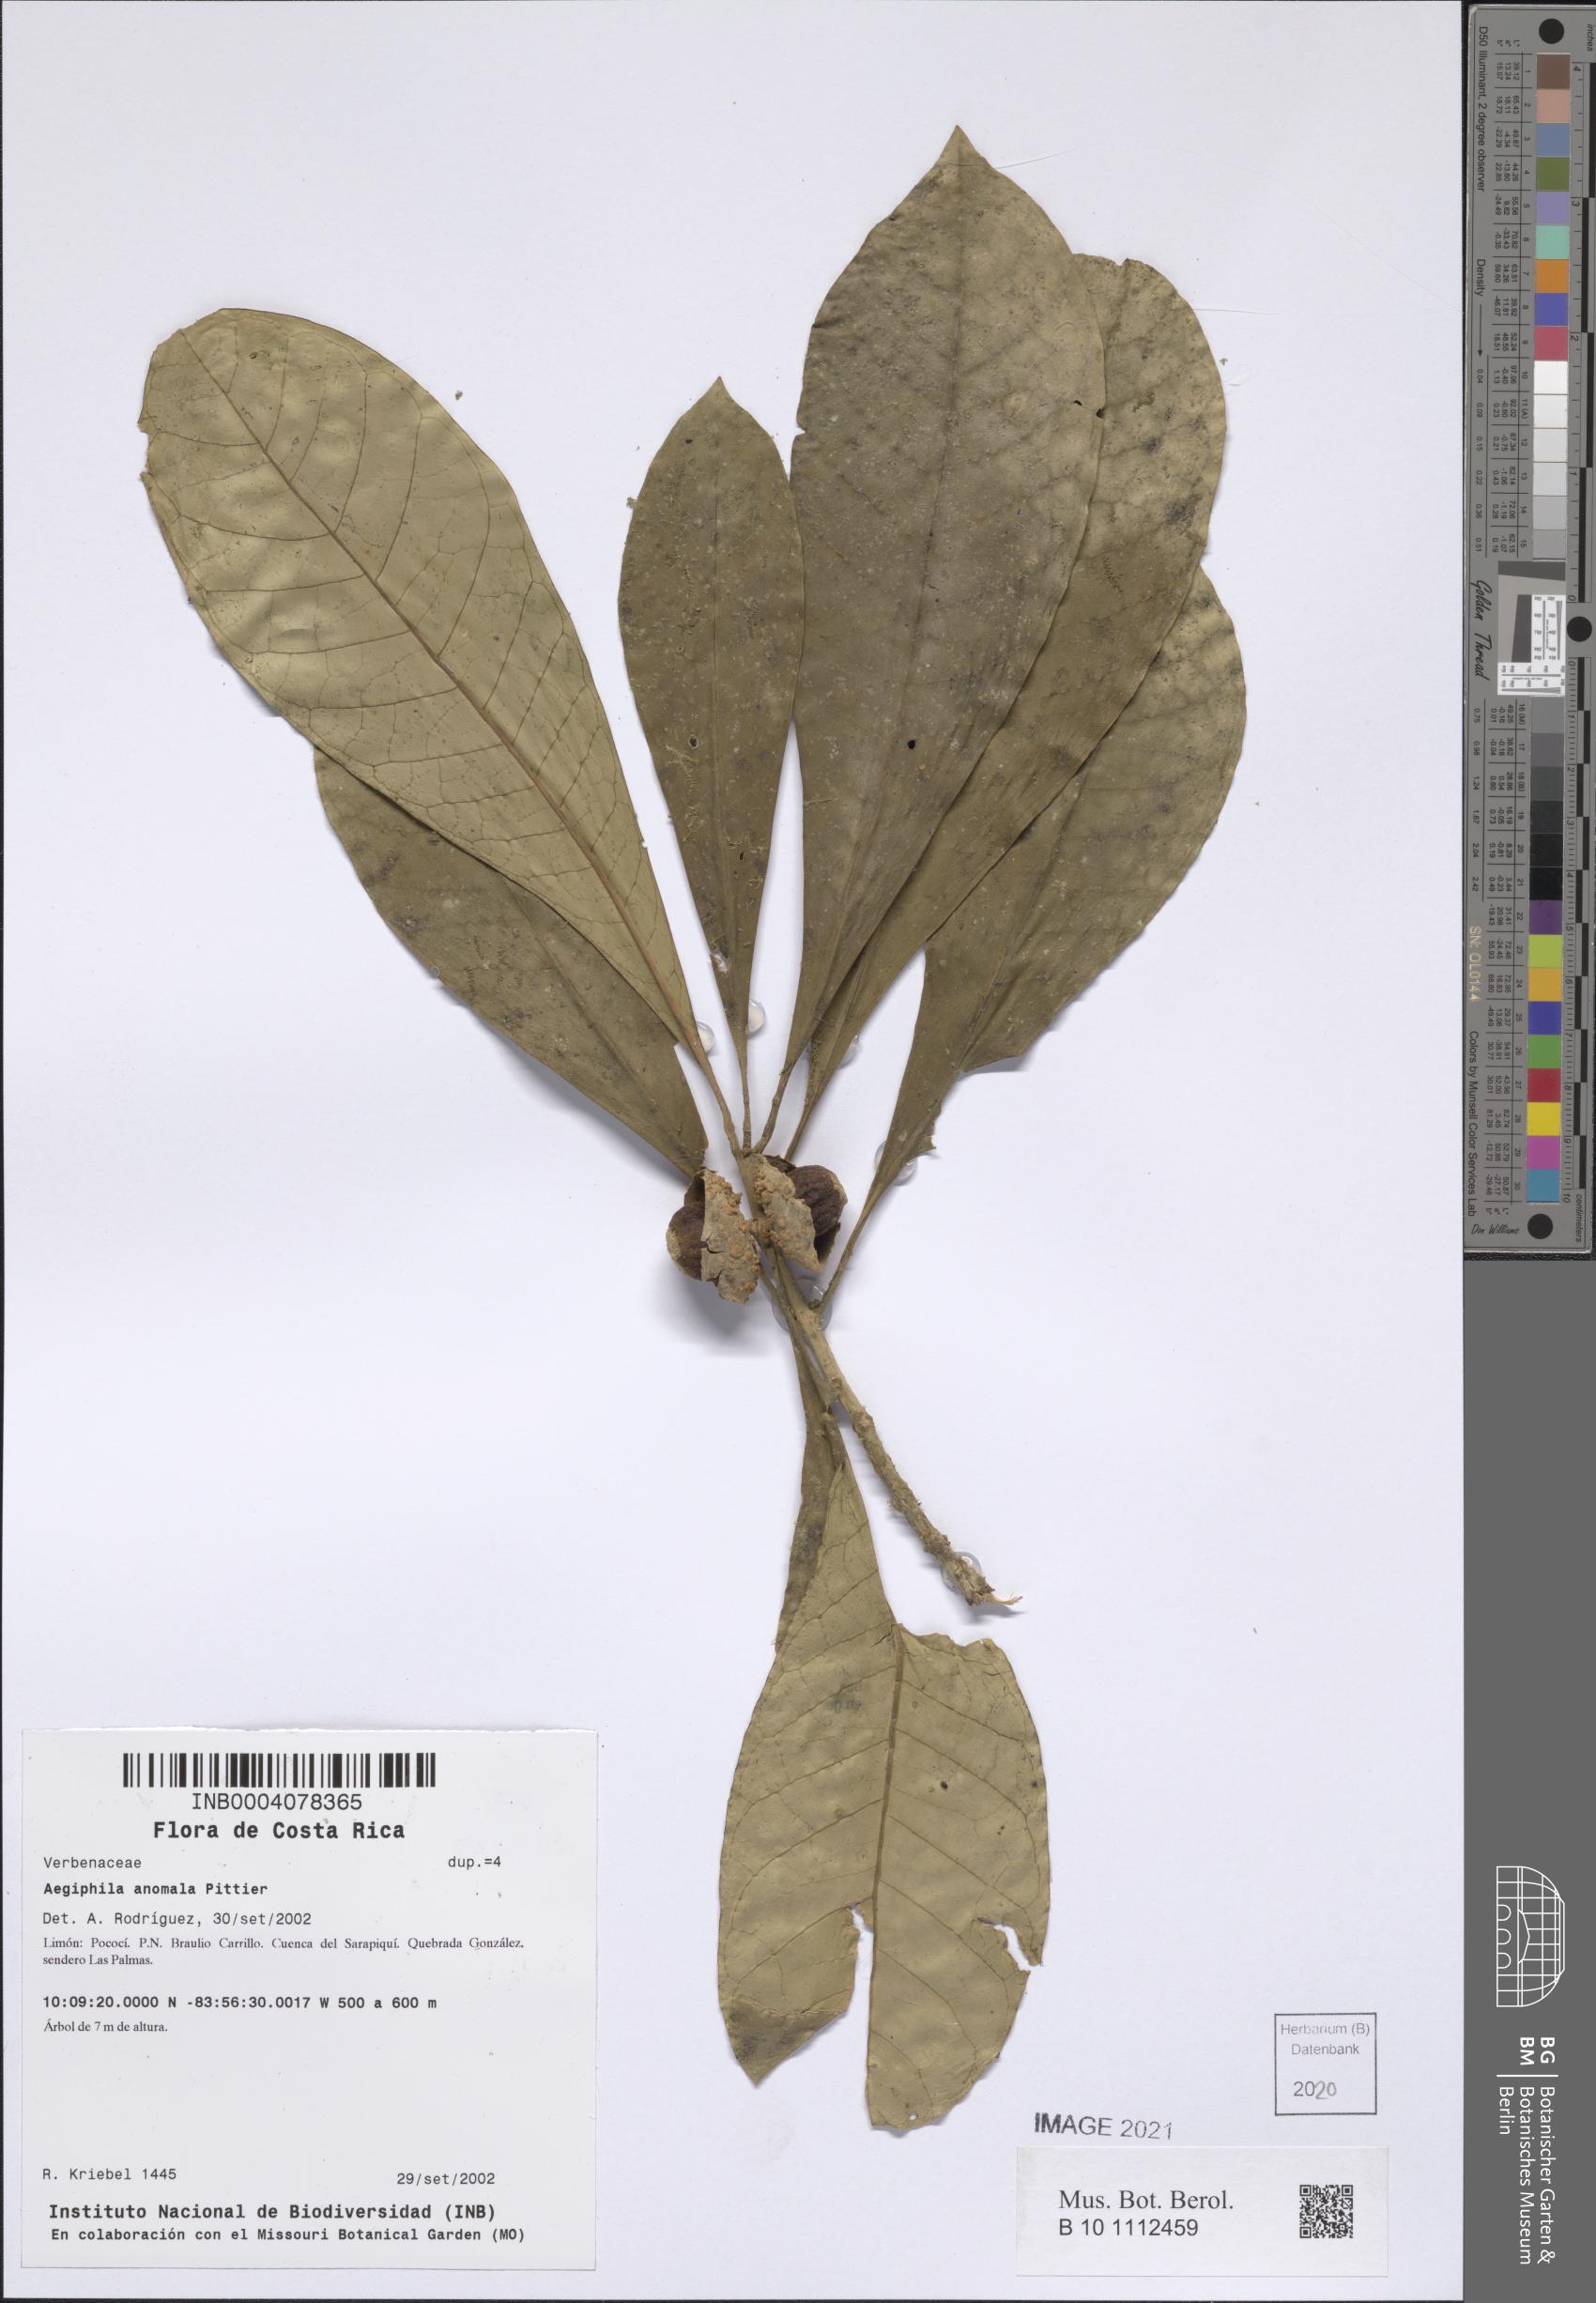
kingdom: Plantae
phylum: Tracheophyta
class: Magnoliopsida
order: Lamiales
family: Lamiaceae
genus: Aegiphila
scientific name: Aegiphila anomala
